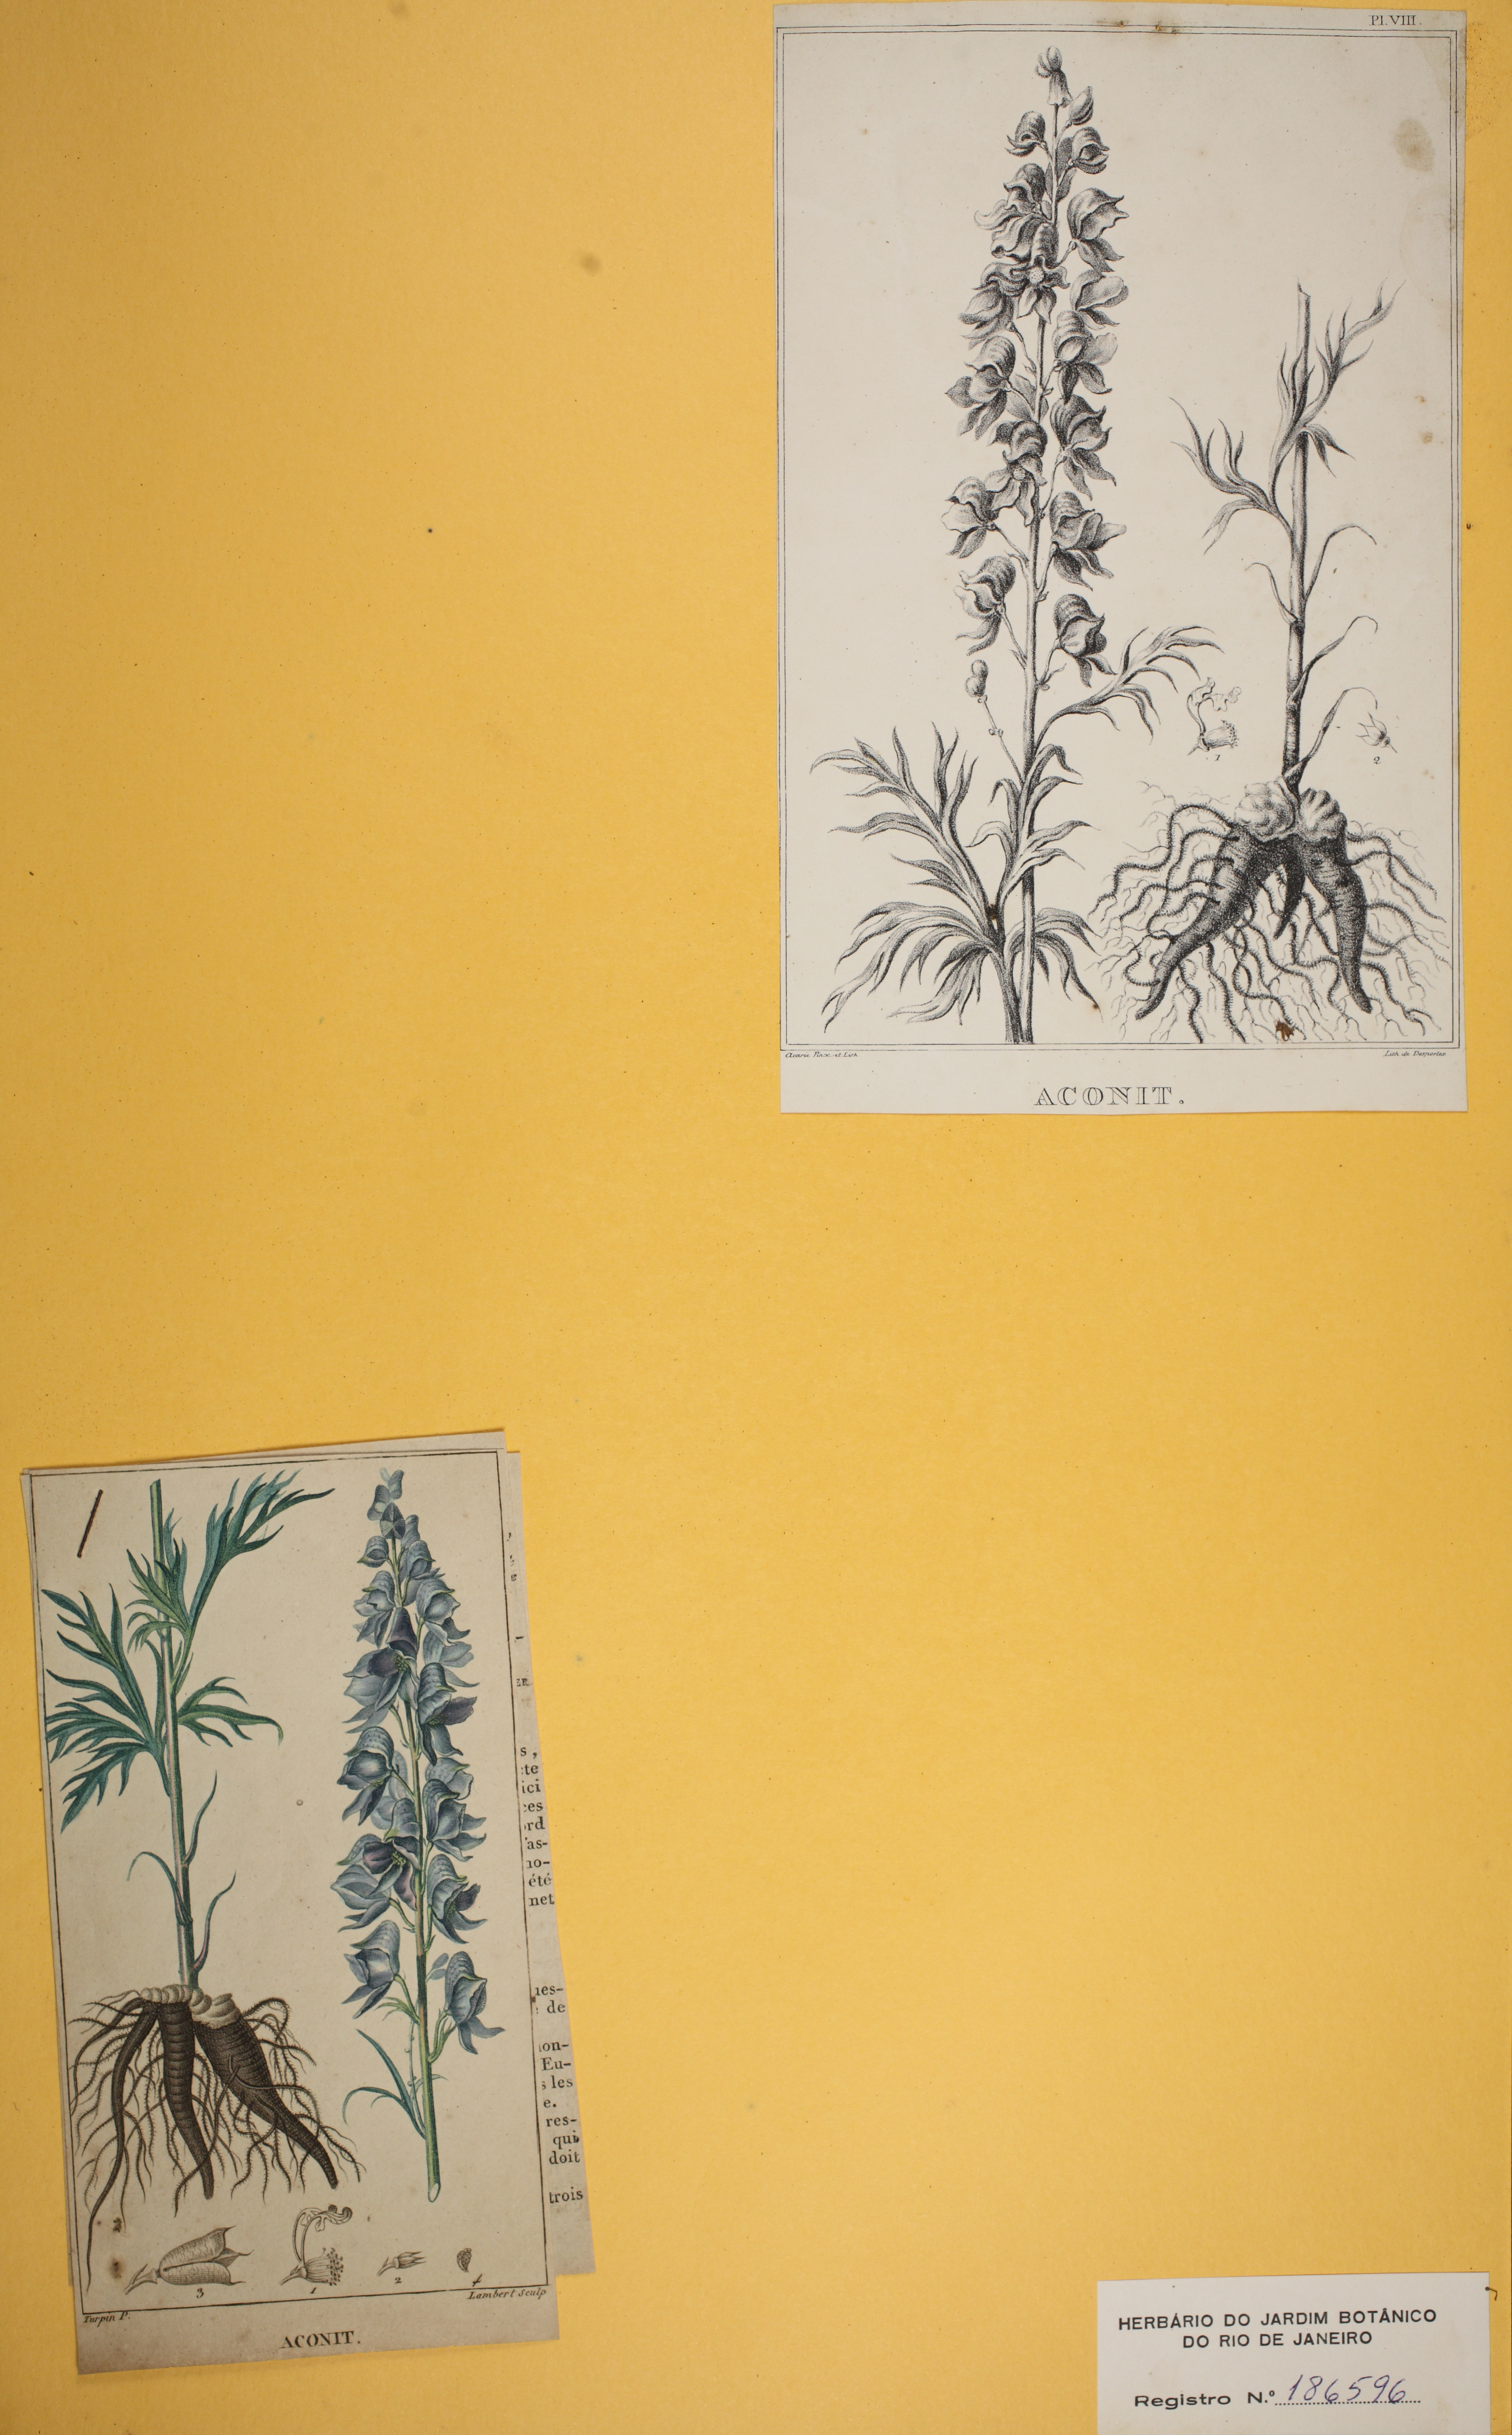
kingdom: Plantae
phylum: Tracheophyta
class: Magnoliopsida
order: Ranunculales
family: Ranunculaceae
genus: Aconitum
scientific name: Aconitum napellus
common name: Garden monkshood
